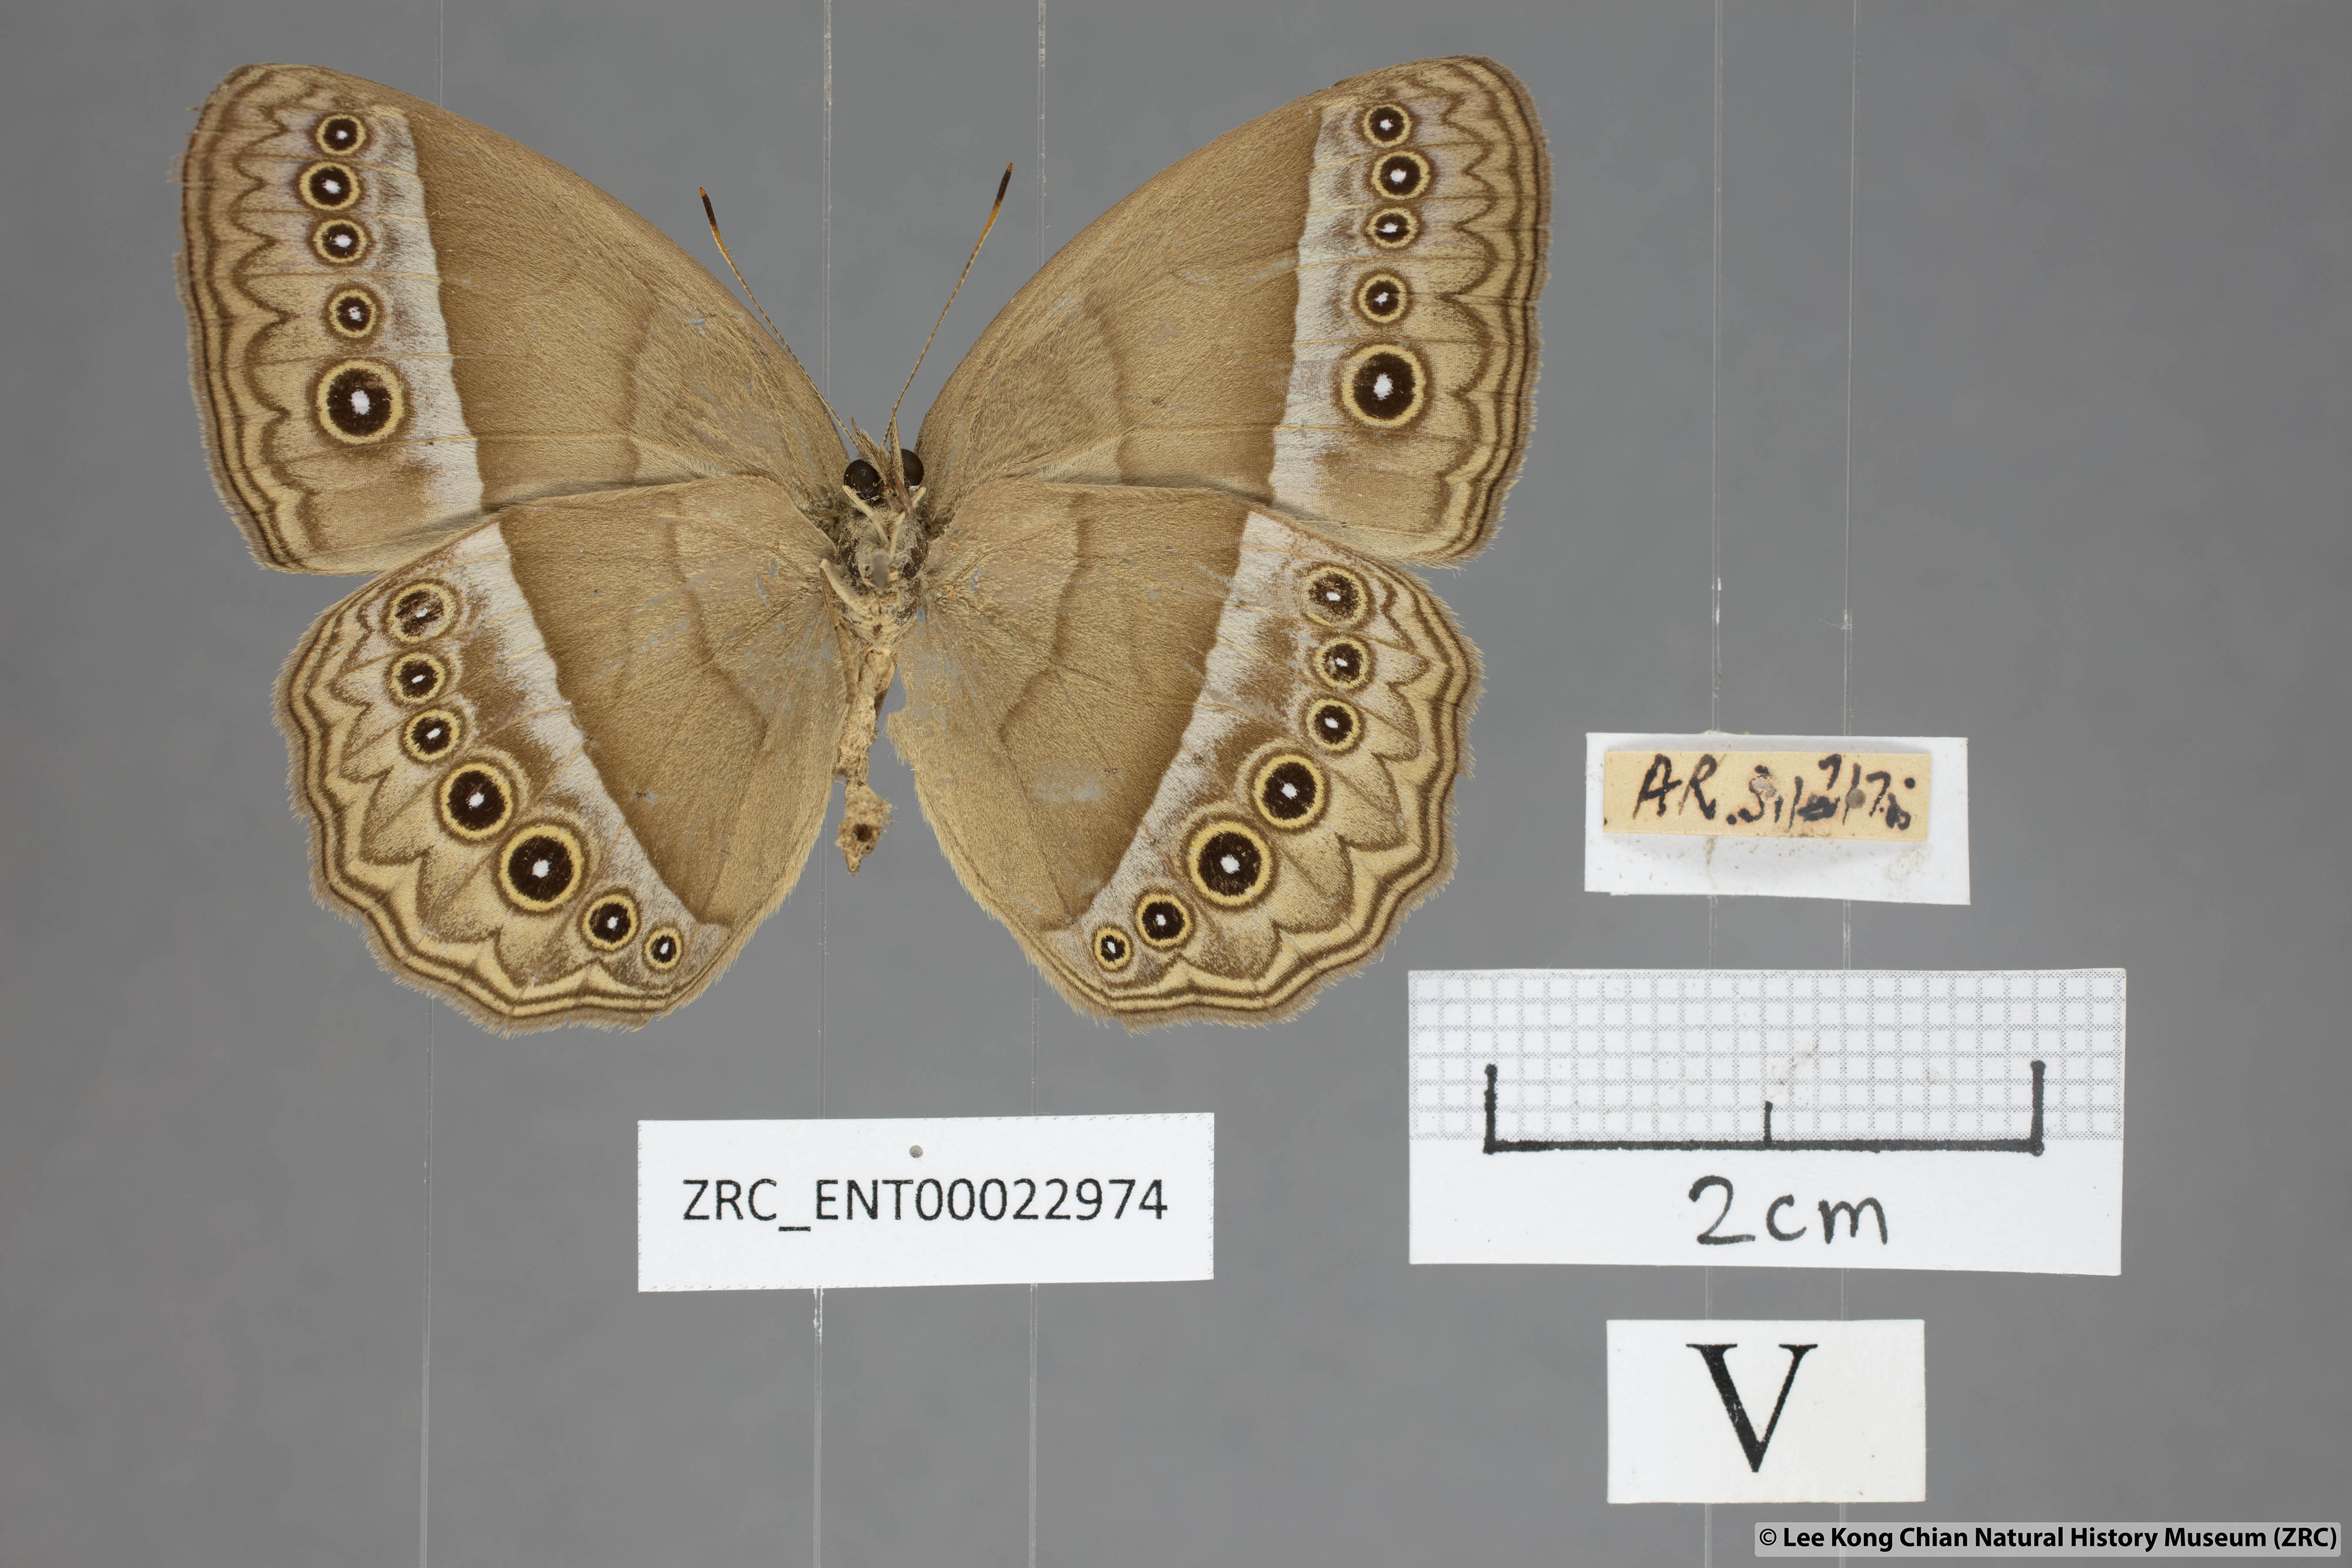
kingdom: Animalia
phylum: Arthropoda
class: Insecta
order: Lepidoptera
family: Nymphalidae
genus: Mycalesis
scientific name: Mycalesis orseis
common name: Purple bushbrown
